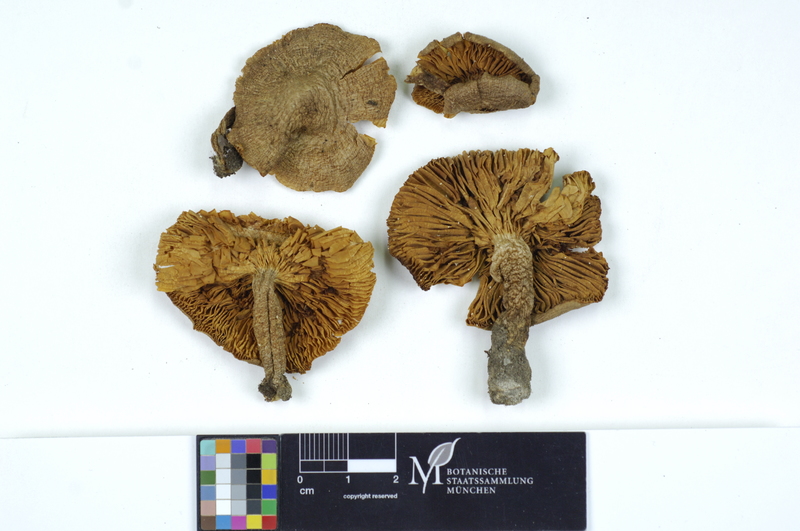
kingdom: Fungi
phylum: Basidiomycota
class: Agaricomycetes
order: Agaricales
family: Tricholomataceae
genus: Tricholoma
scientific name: Tricholoma scalpturatum
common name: Yellowing knight
